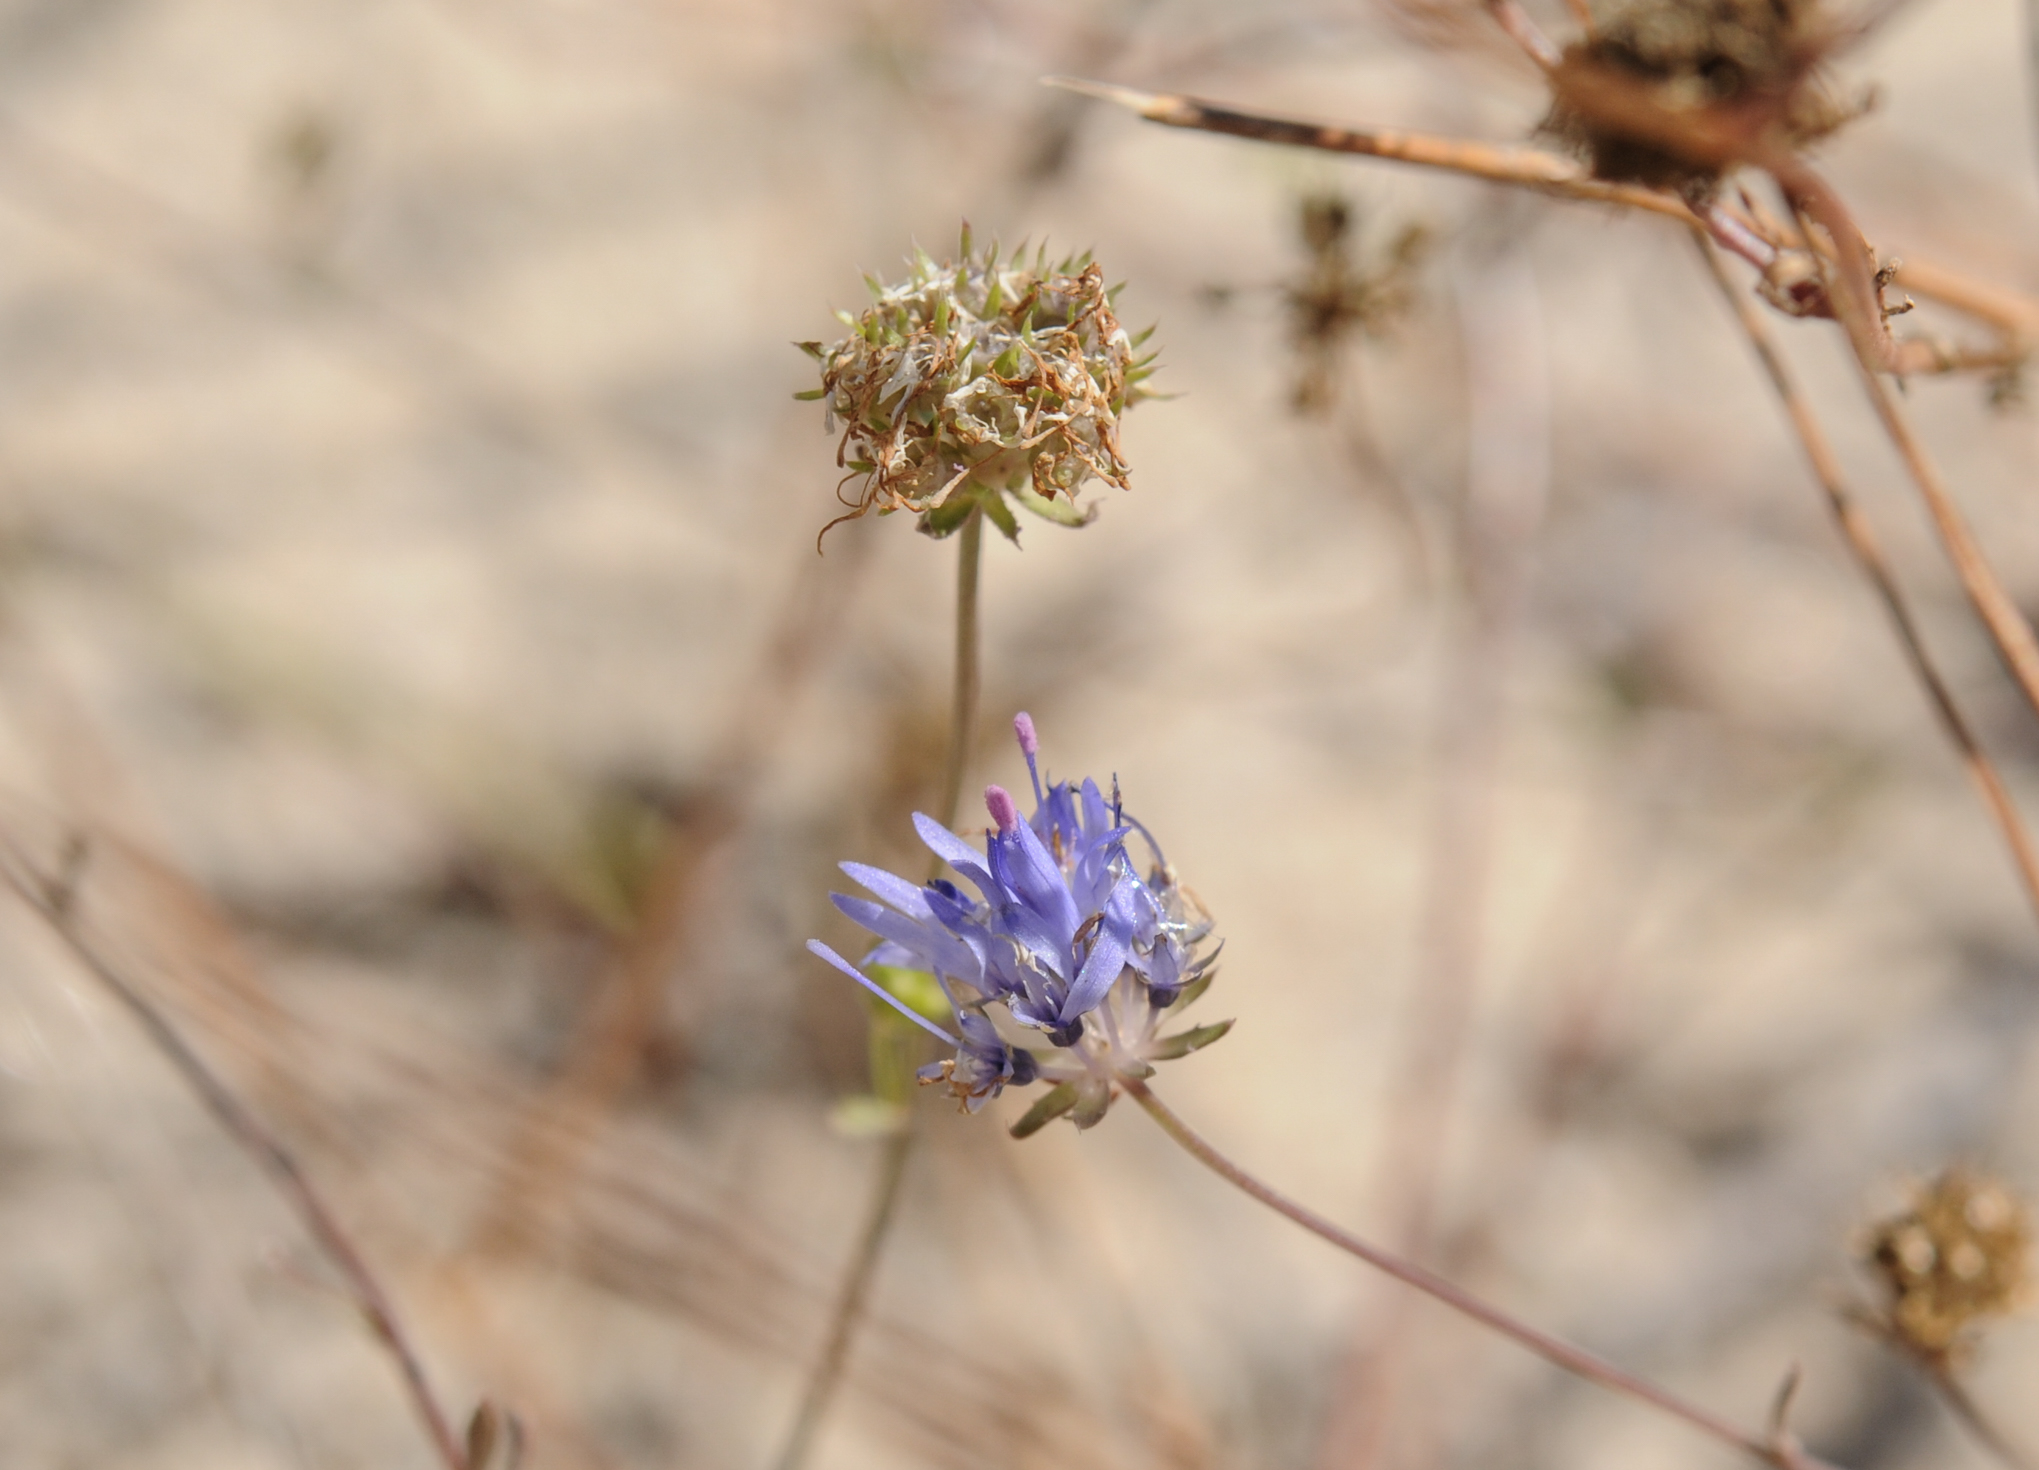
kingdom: Plantae
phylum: Tracheophyta
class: Magnoliopsida
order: Asterales
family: Campanulaceae
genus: Jasione
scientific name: Jasione heldreichii
